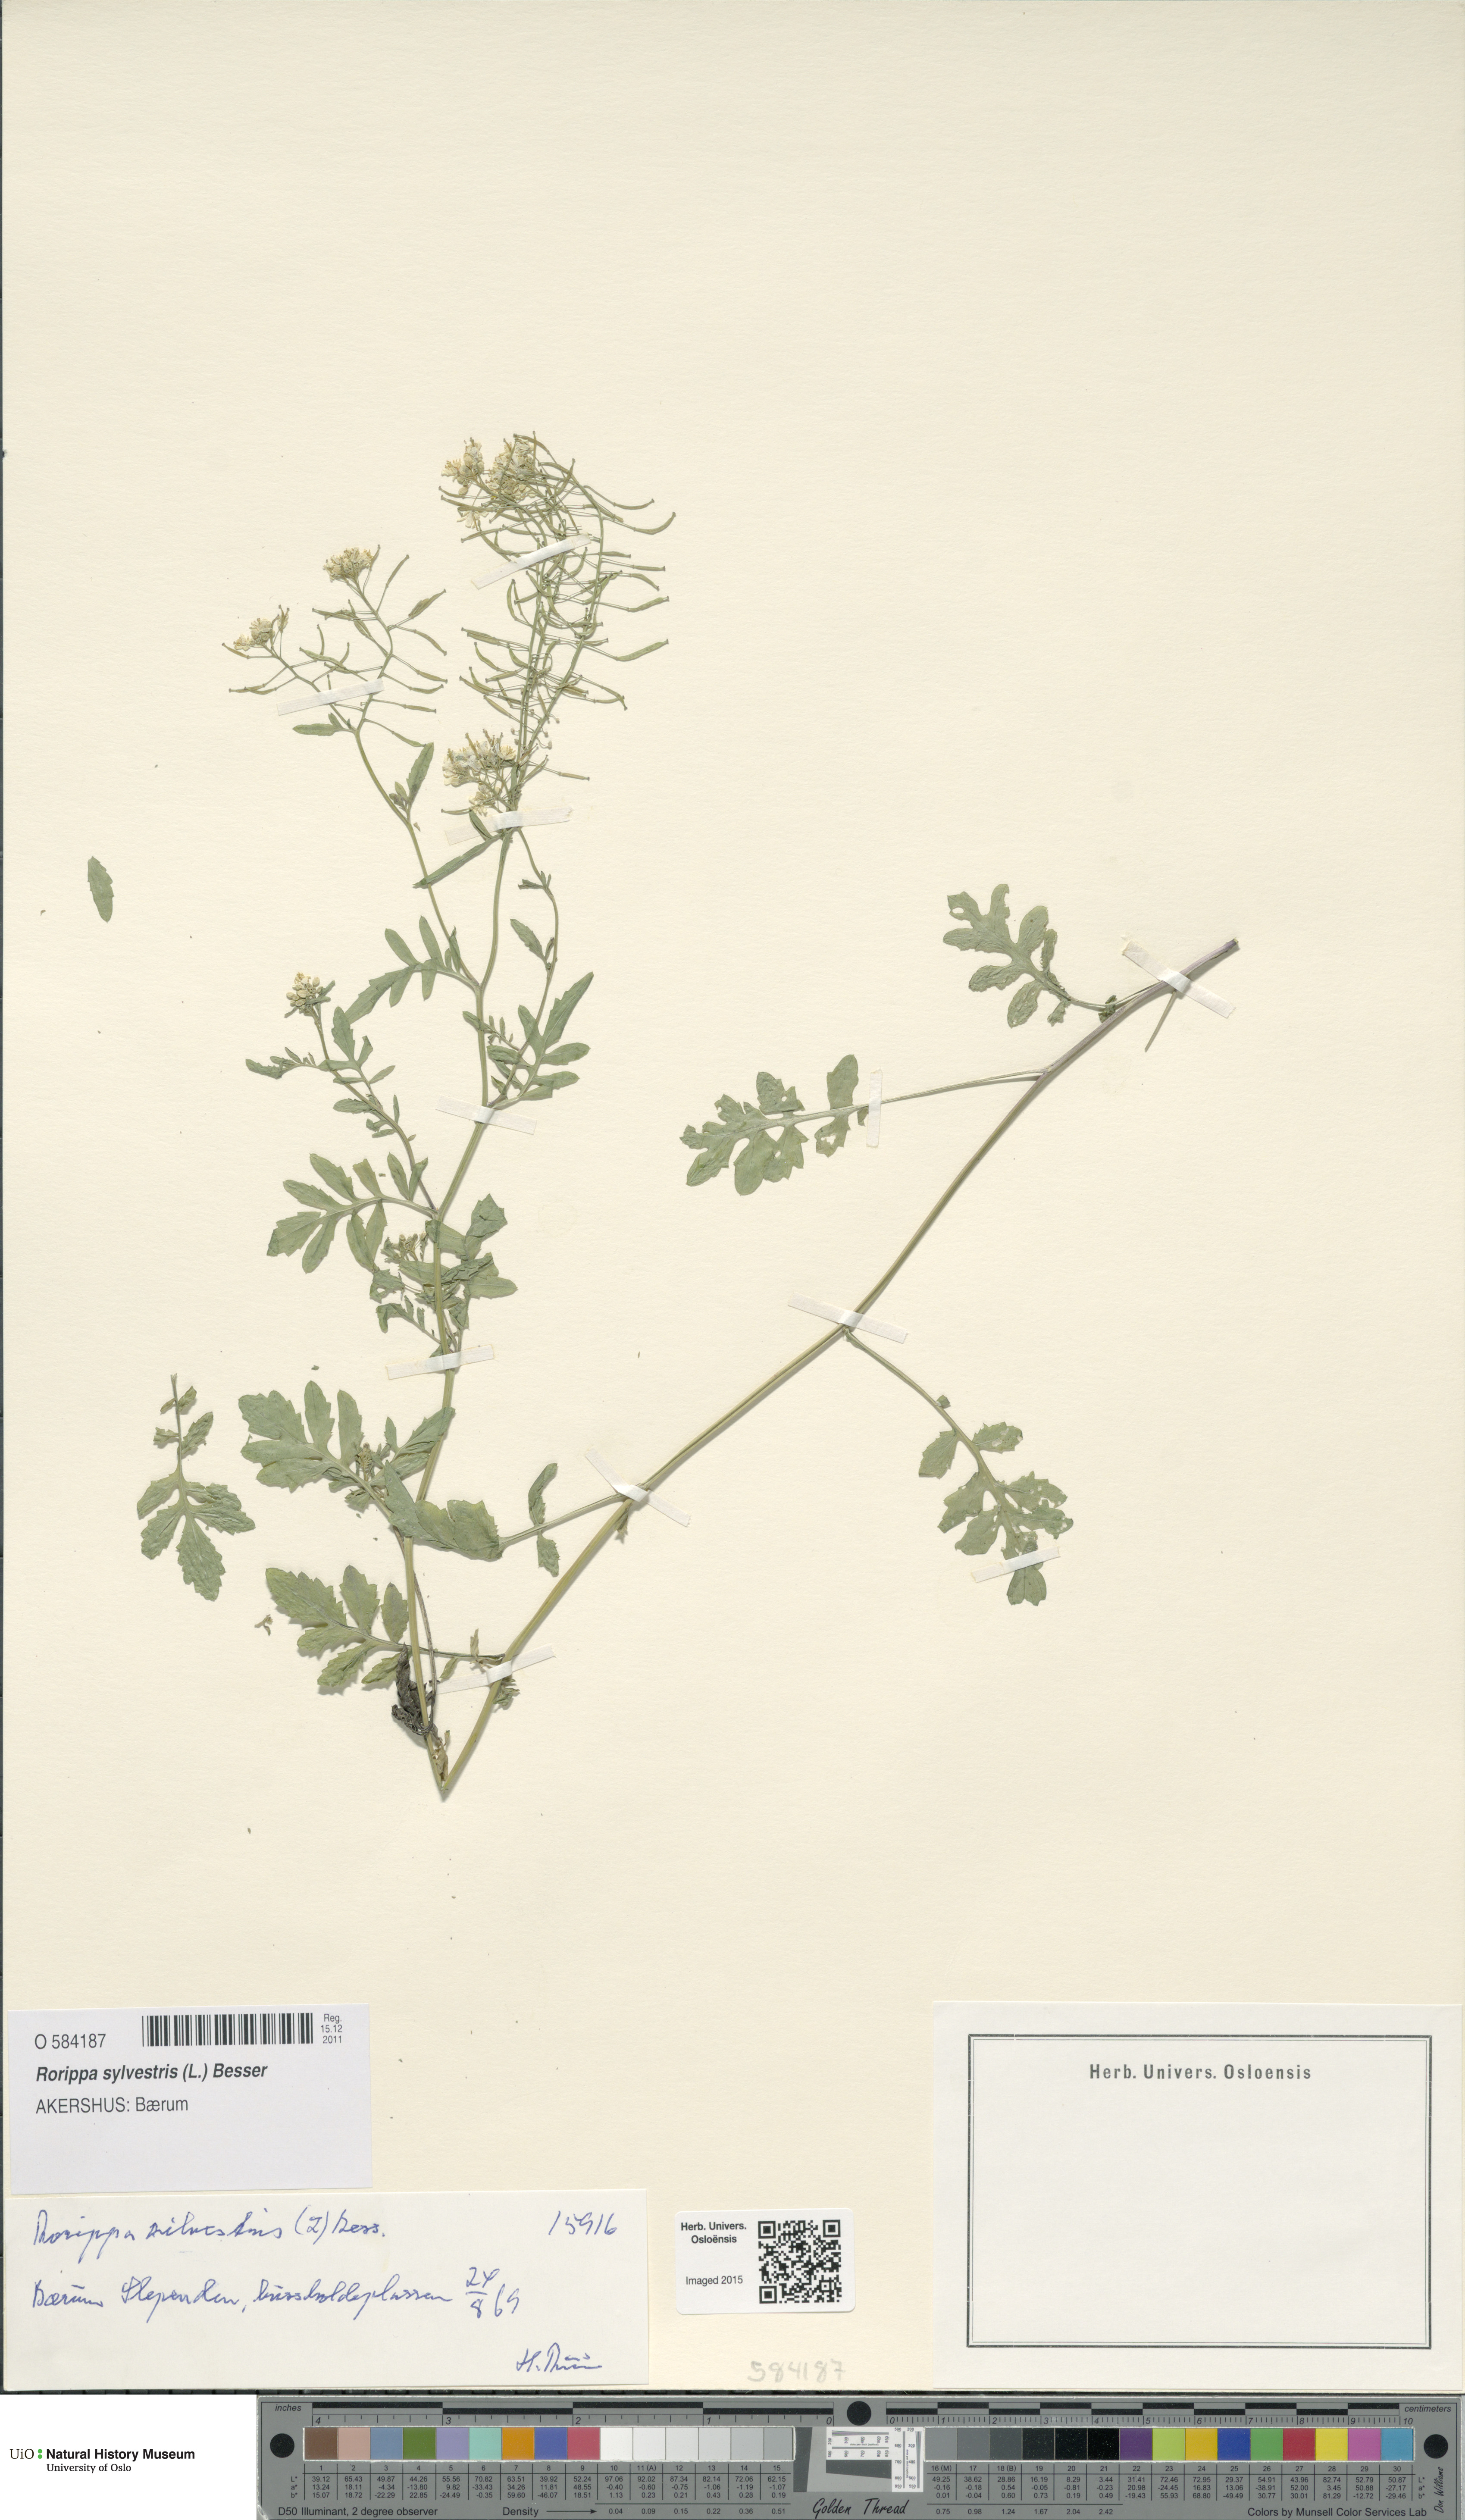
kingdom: Plantae
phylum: Tracheophyta
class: Magnoliopsida
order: Brassicales
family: Brassicaceae
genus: Rorippa
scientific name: Rorippa sylvestris
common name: Creeping yellowcress
